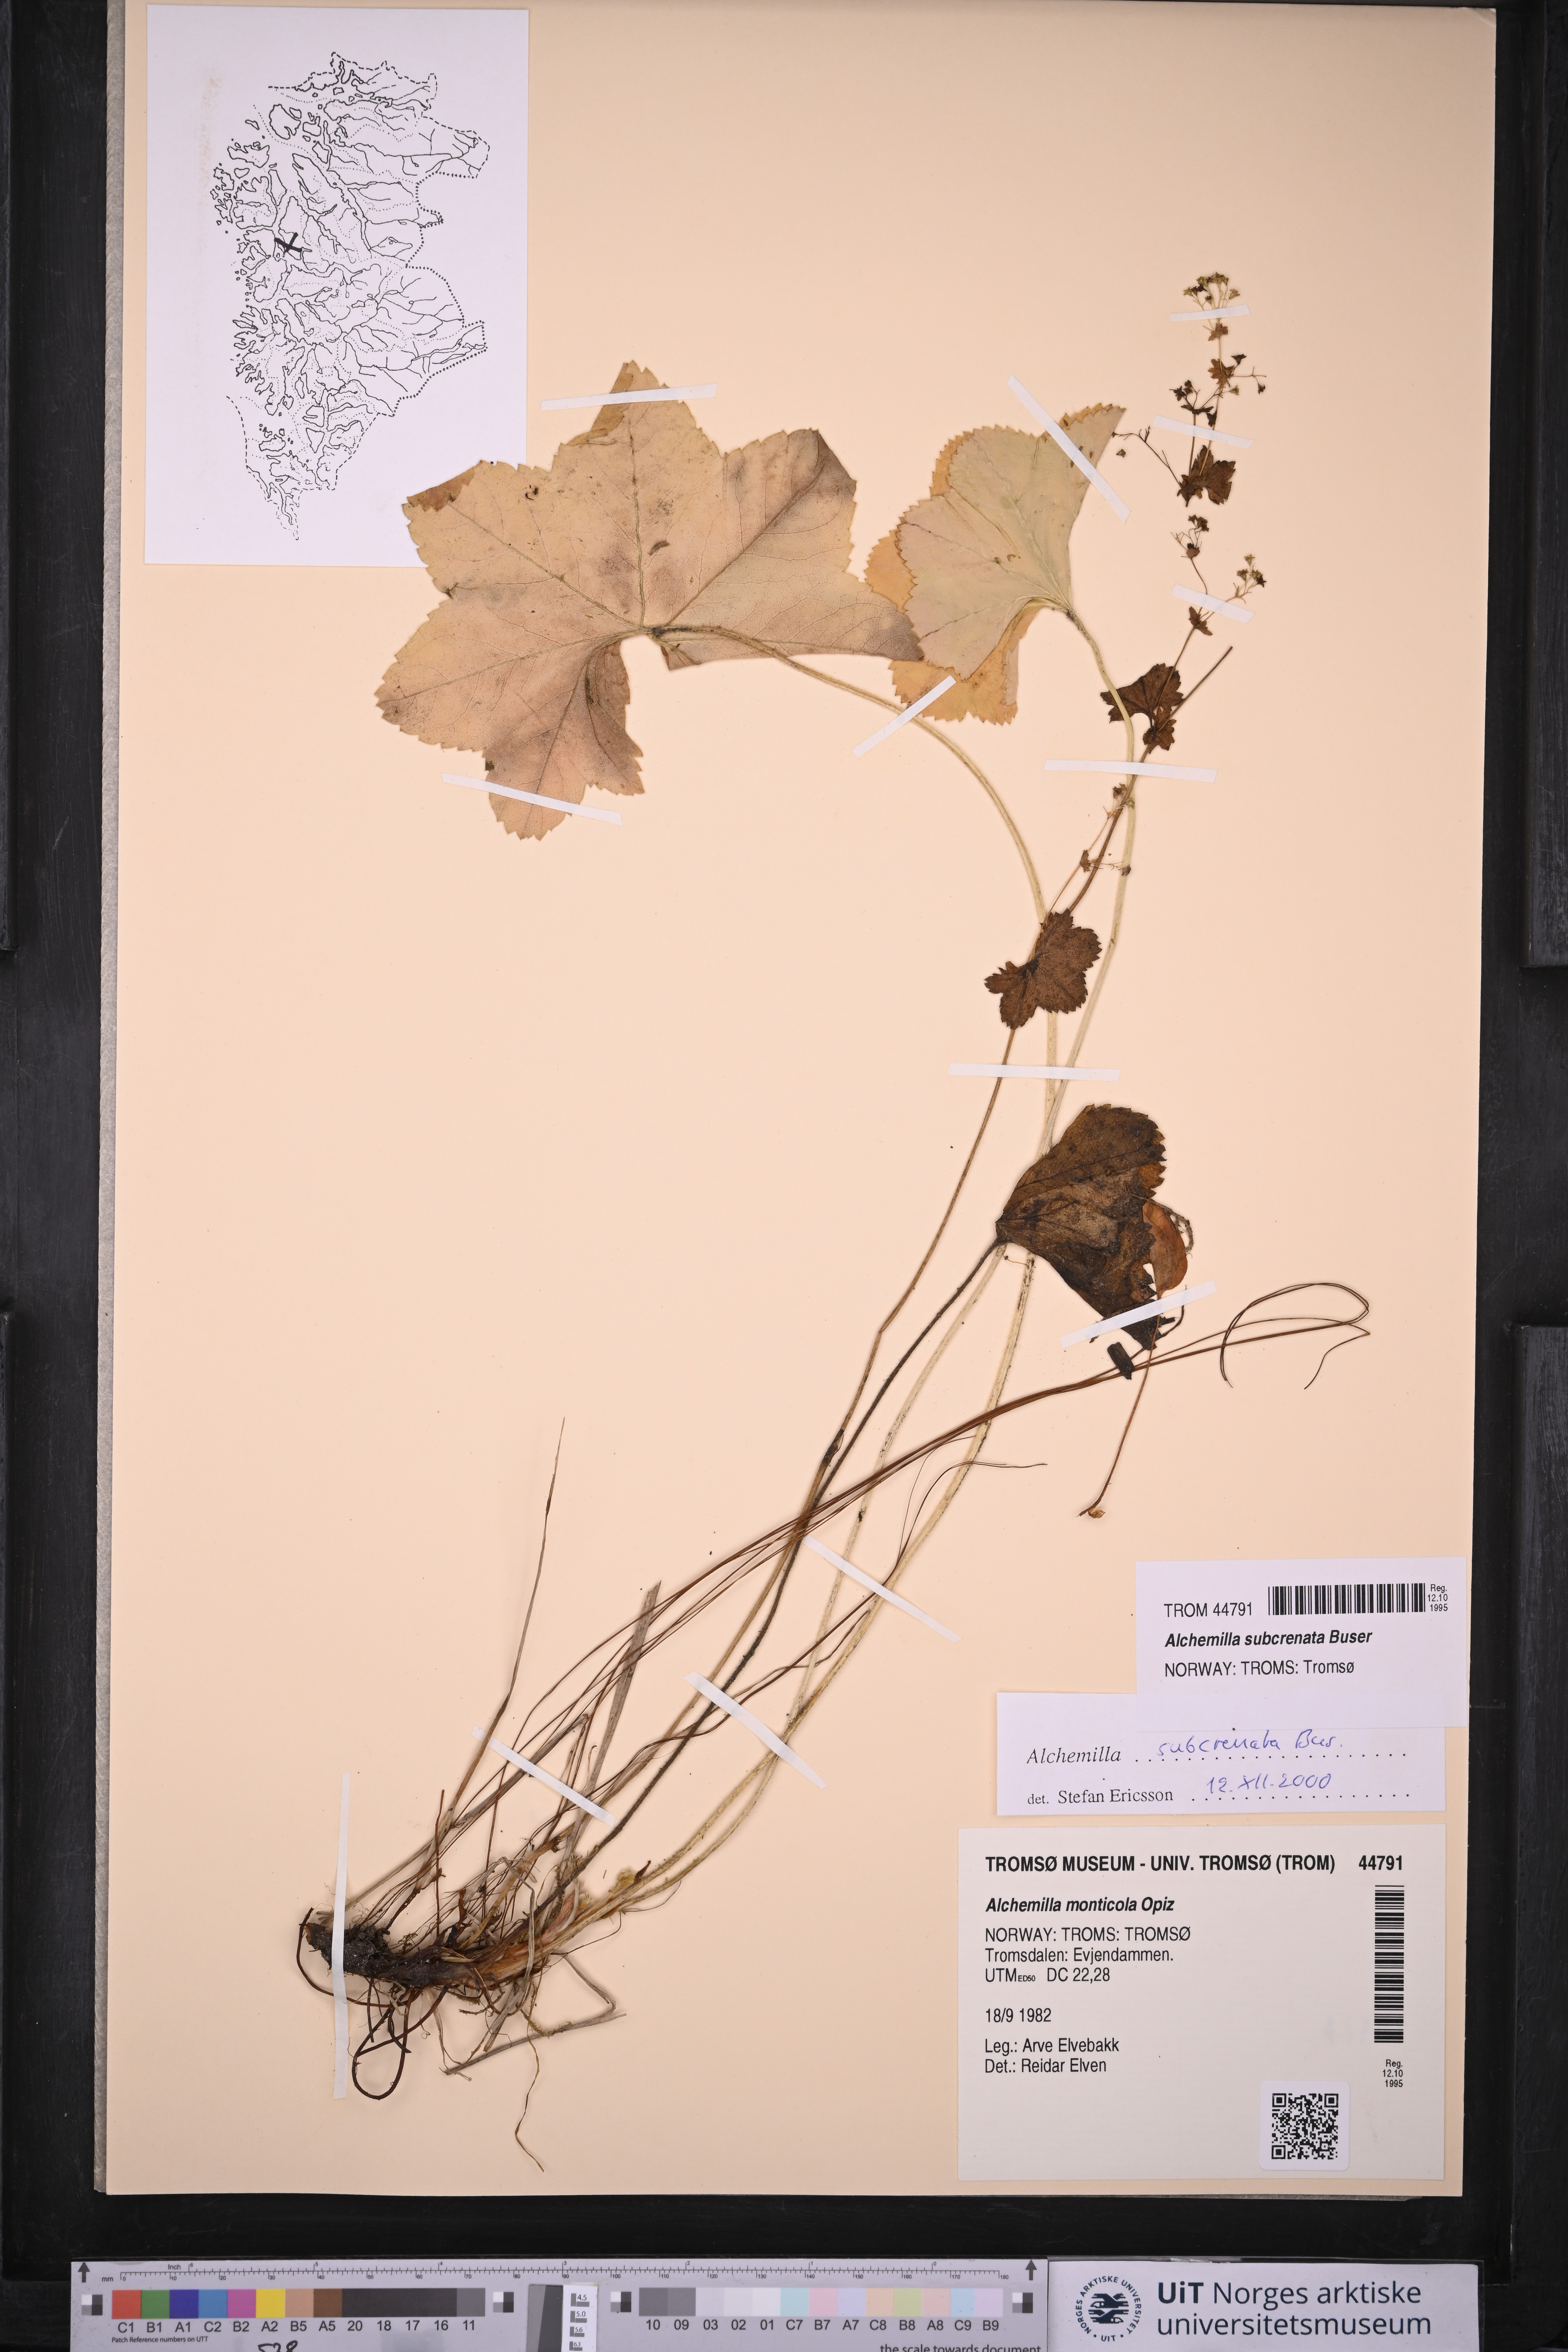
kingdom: Plantae
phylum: Tracheophyta
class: Magnoliopsida
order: Rosales
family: Rosaceae
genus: Alchemilla
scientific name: Alchemilla subcrenata
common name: Broadtooth lady's mantle
